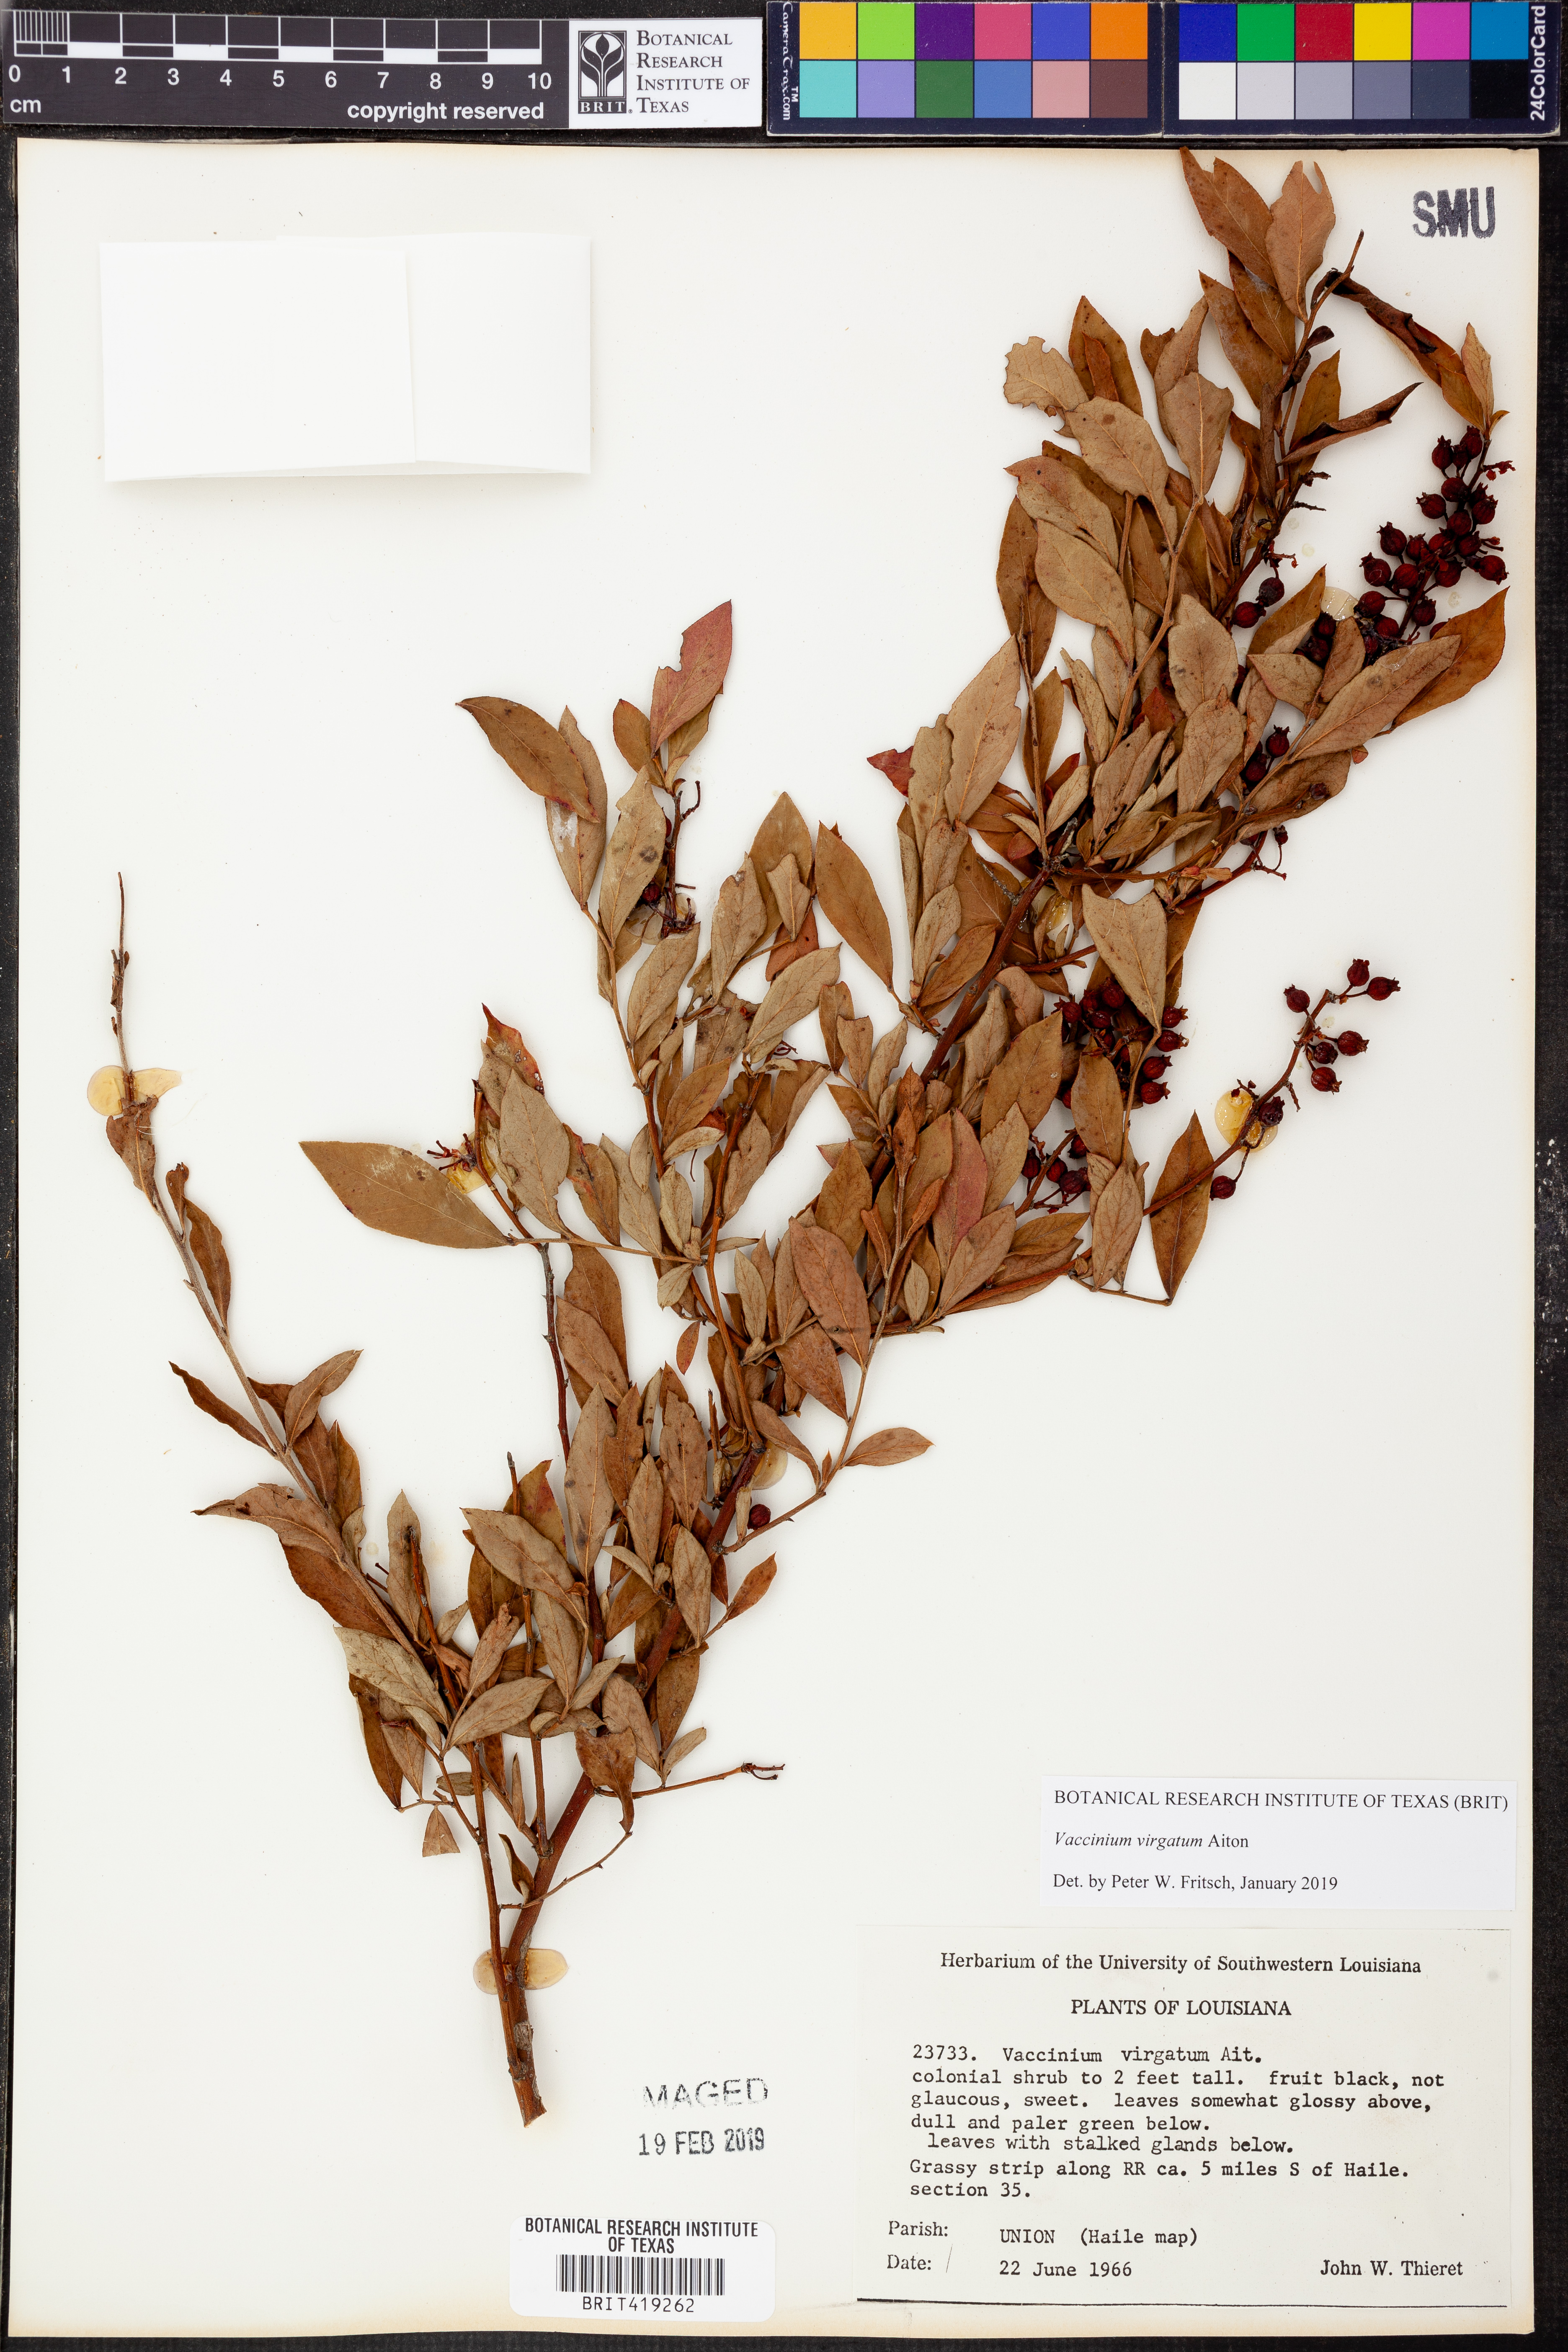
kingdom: Plantae
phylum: Tracheophyta
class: Magnoliopsida
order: Ericales
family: Ericaceae
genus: Vaccinium
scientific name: Vaccinium corymbosum
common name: Blueberry
